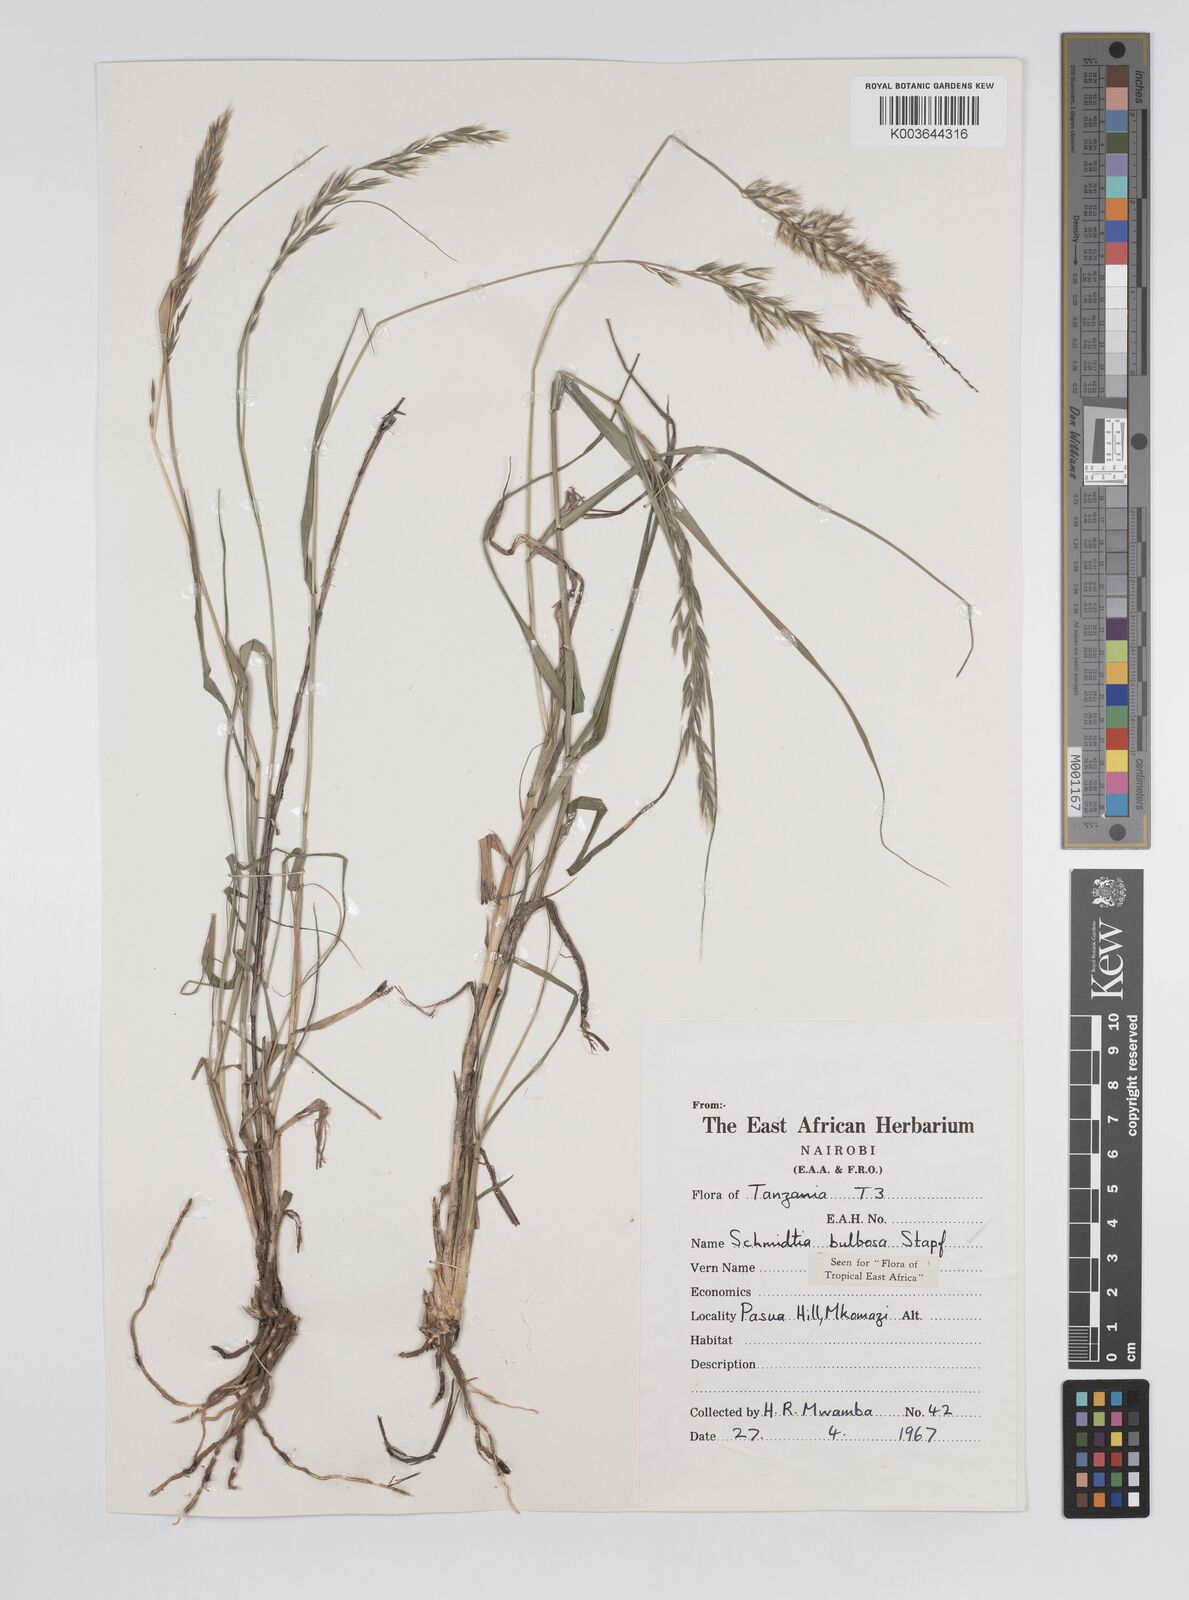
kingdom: Plantae
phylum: Tracheophyta
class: Liliopsida
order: Poales
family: Poaceae
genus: Schmidtia
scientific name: Schmidtia pappophoroides
